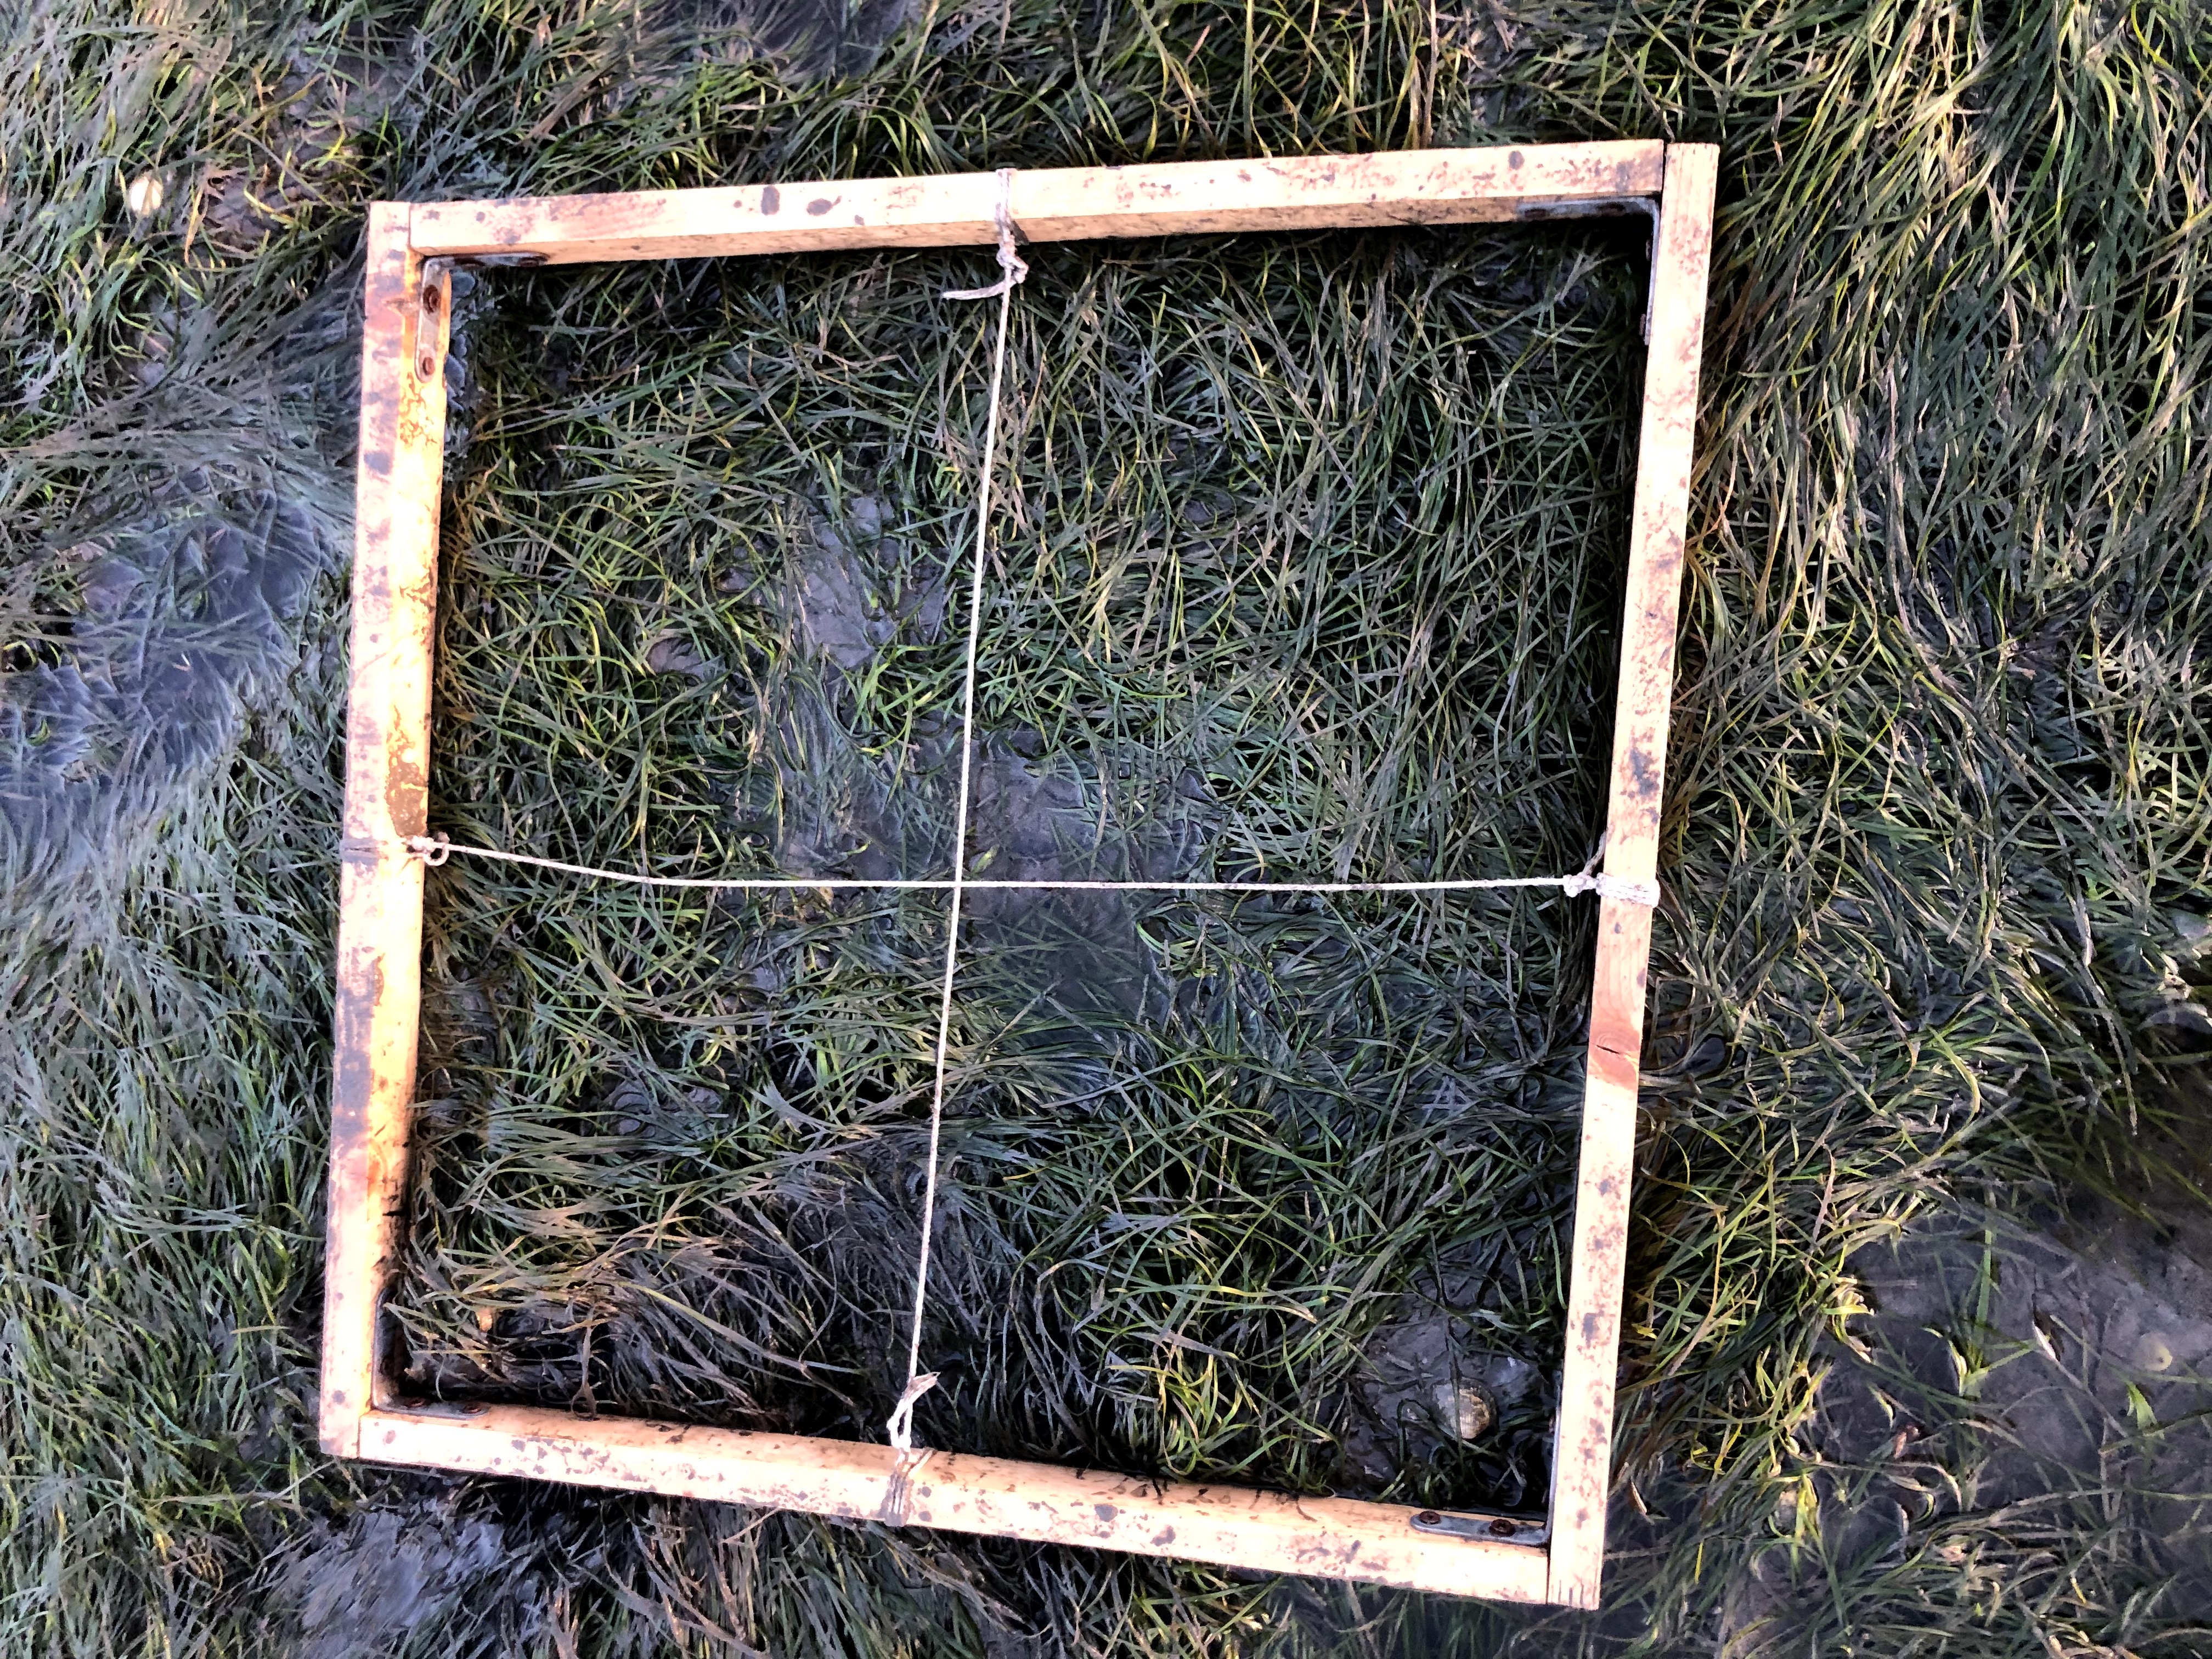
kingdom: Plantae
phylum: Tracheophyta
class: Liliopsida
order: Alismatales
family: Zosteraceae
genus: Zostera
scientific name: Zostera noltii
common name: Dwarf eelgrass
